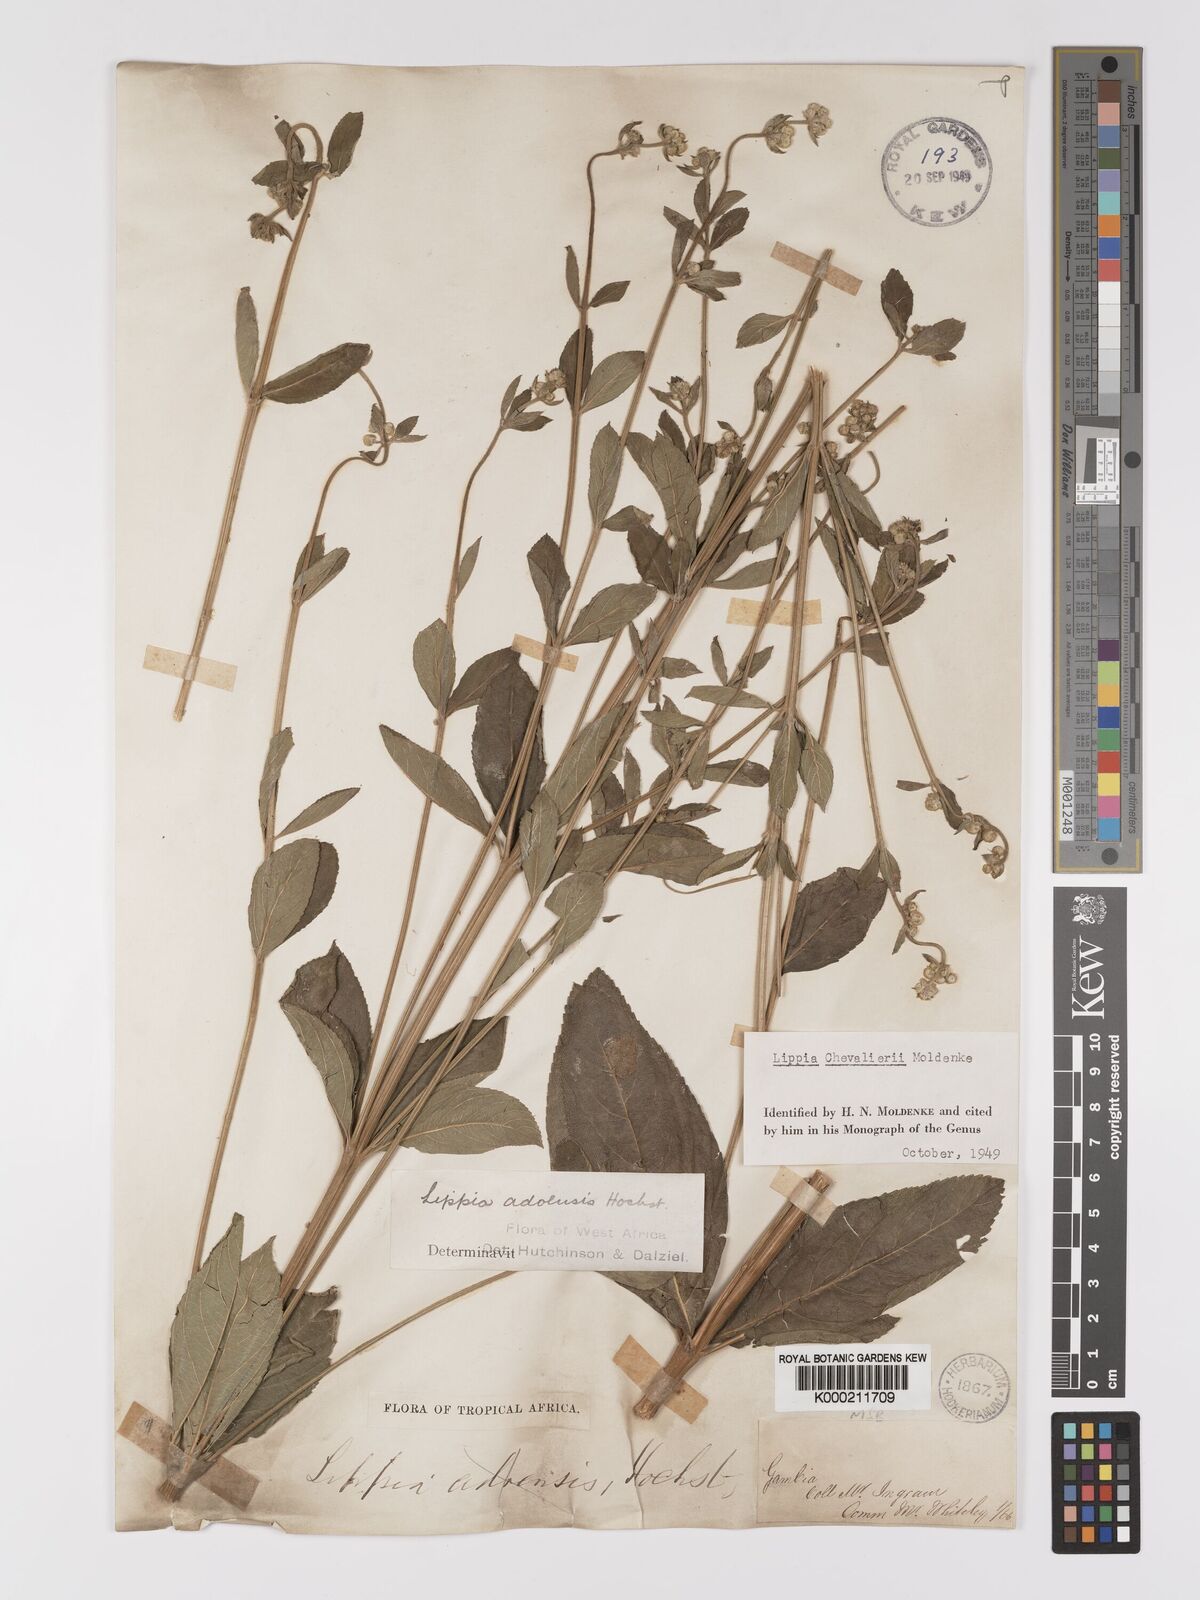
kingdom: Plantae
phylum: Tracheophyta
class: Magnoliopsida
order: Lamiales
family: Verbenaceae
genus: Lippia
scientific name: Lippia chevalieri
